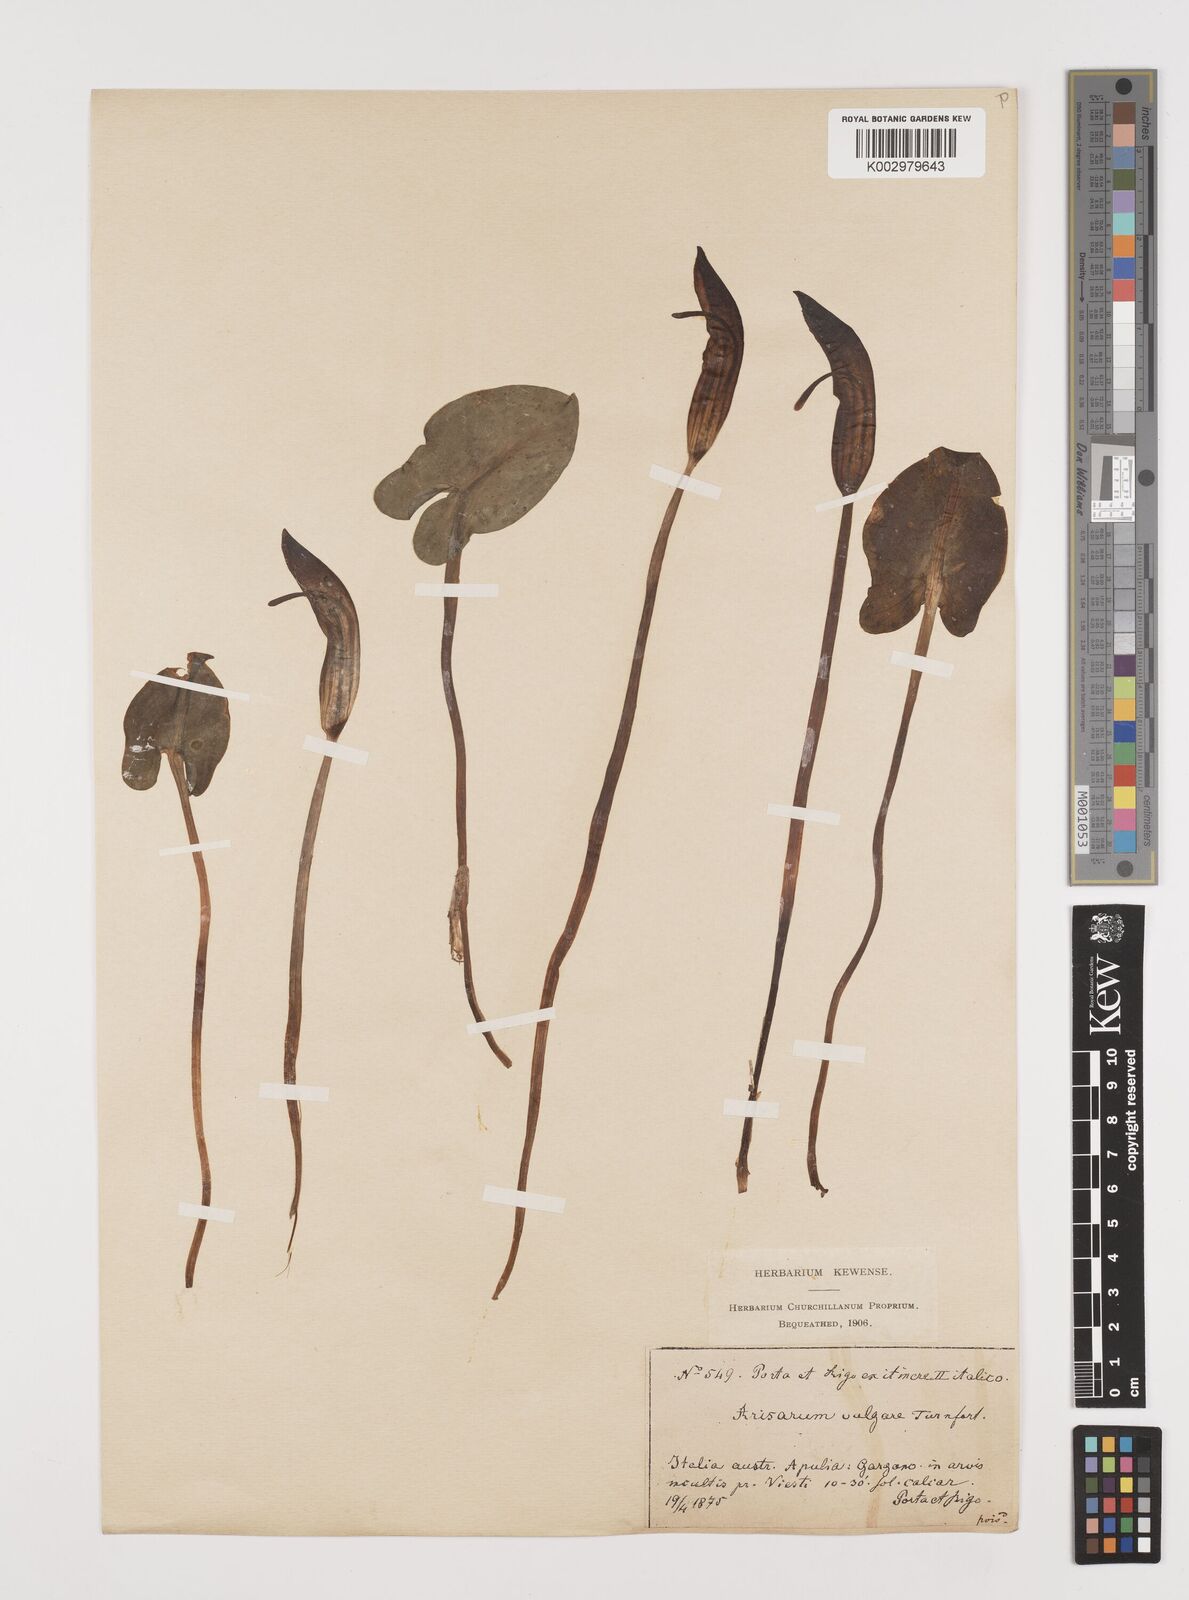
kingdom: Plantae
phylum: Tracheophyta
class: Liliopsida
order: Alismatales
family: Araceae
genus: Arisarum
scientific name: Arisarum vulgare
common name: Common arisarum
